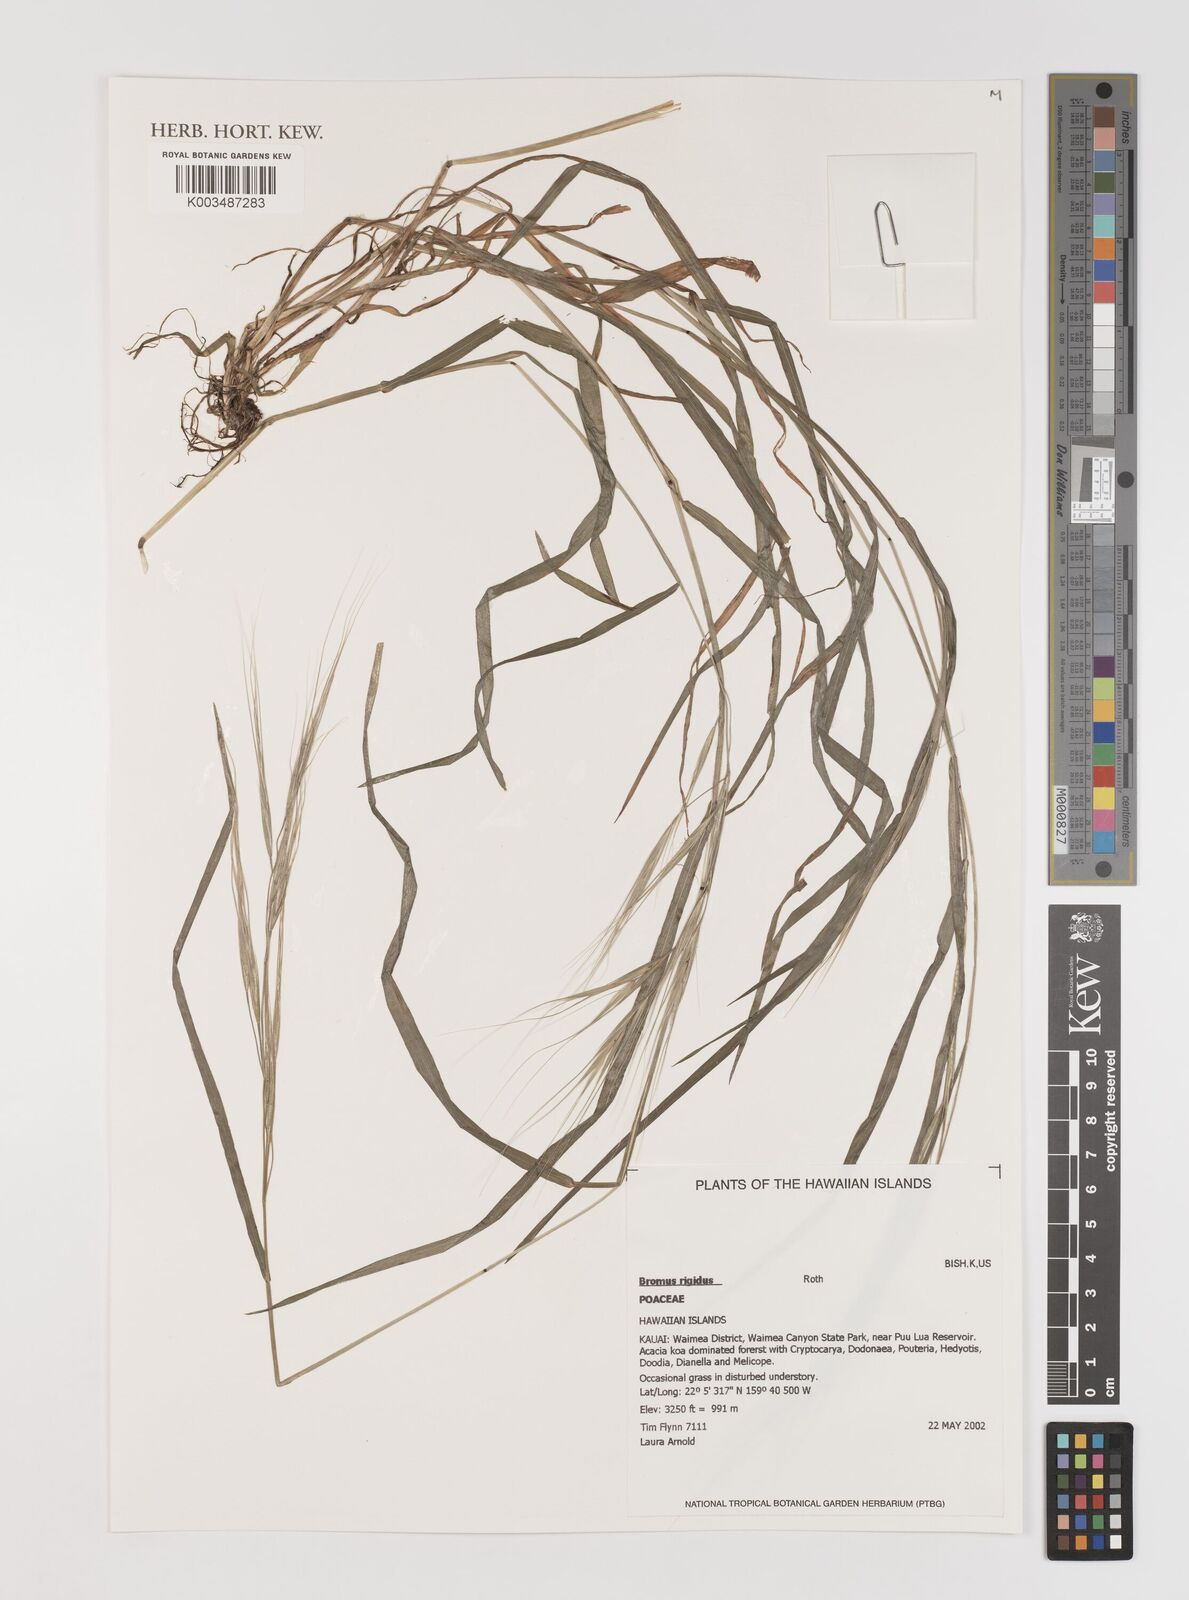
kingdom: Plantae
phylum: Tracheophyta
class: Liliopsida
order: Poales
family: Poaceae
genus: Bromus
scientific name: Bromus
